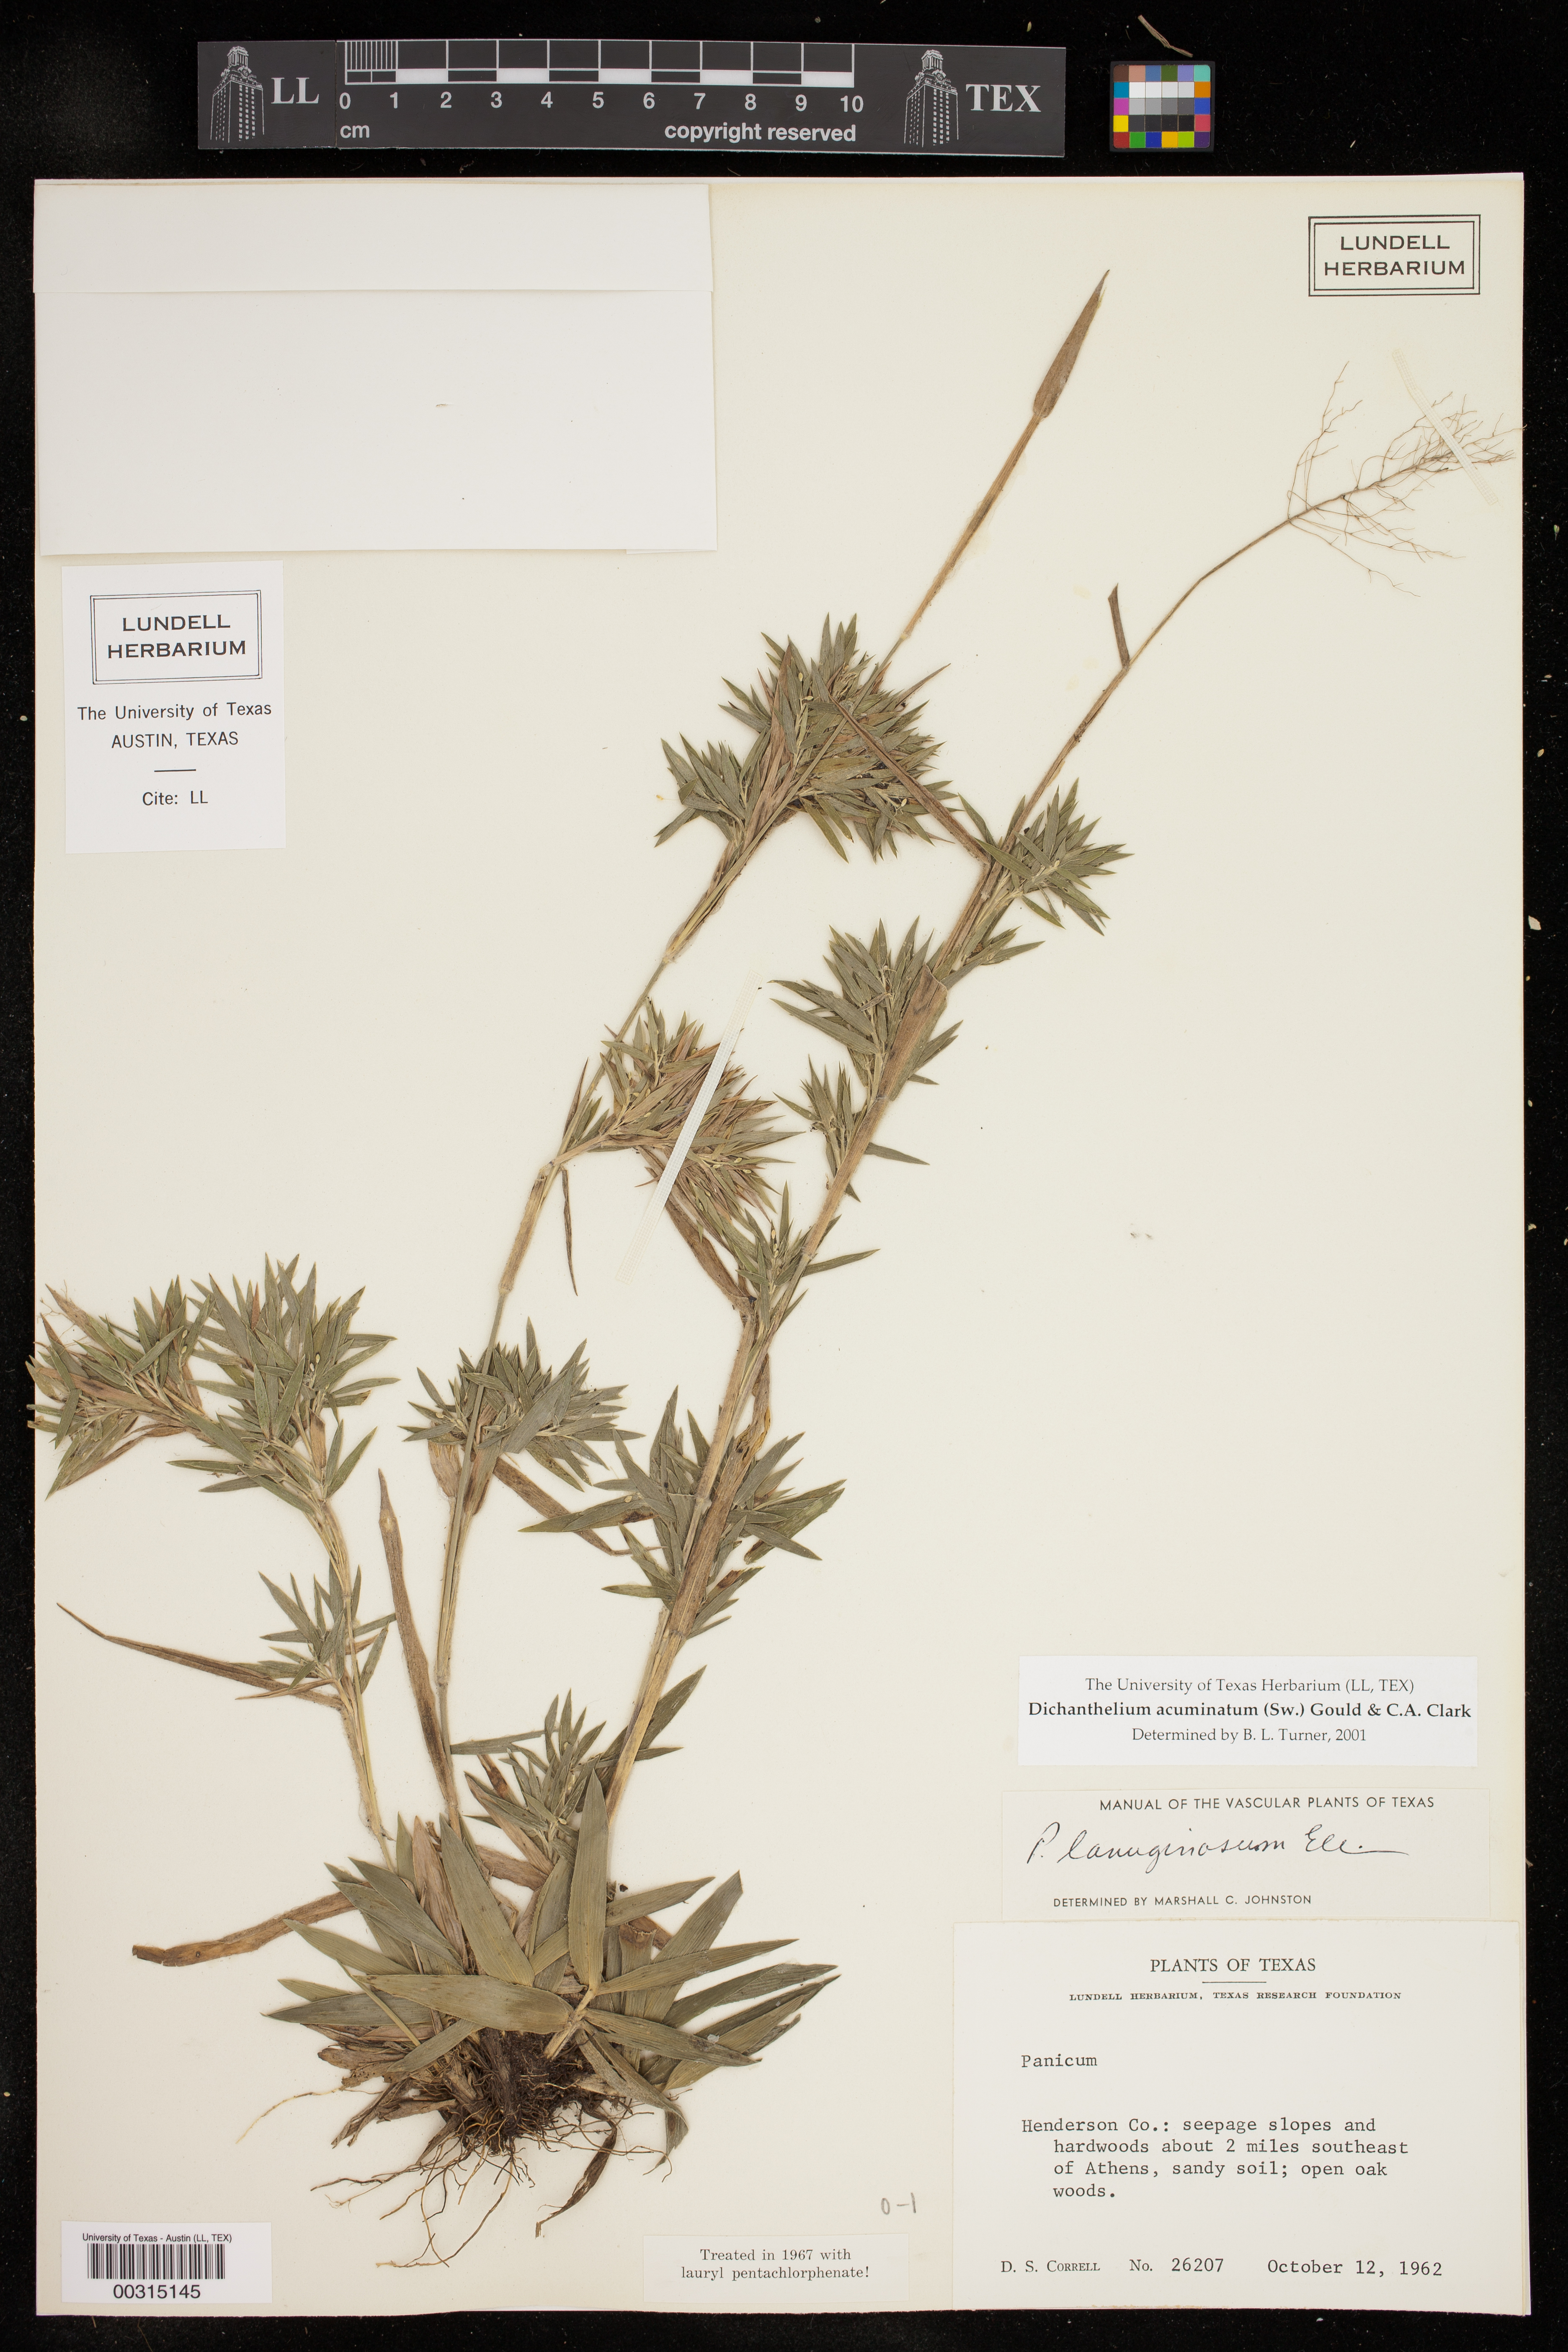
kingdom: Plantae
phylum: Tracheophyta
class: Liliopsida
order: Poales
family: Poaceae
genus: Dichanthelium
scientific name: Dichanthelium acuminatum
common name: Hairy panic grass
